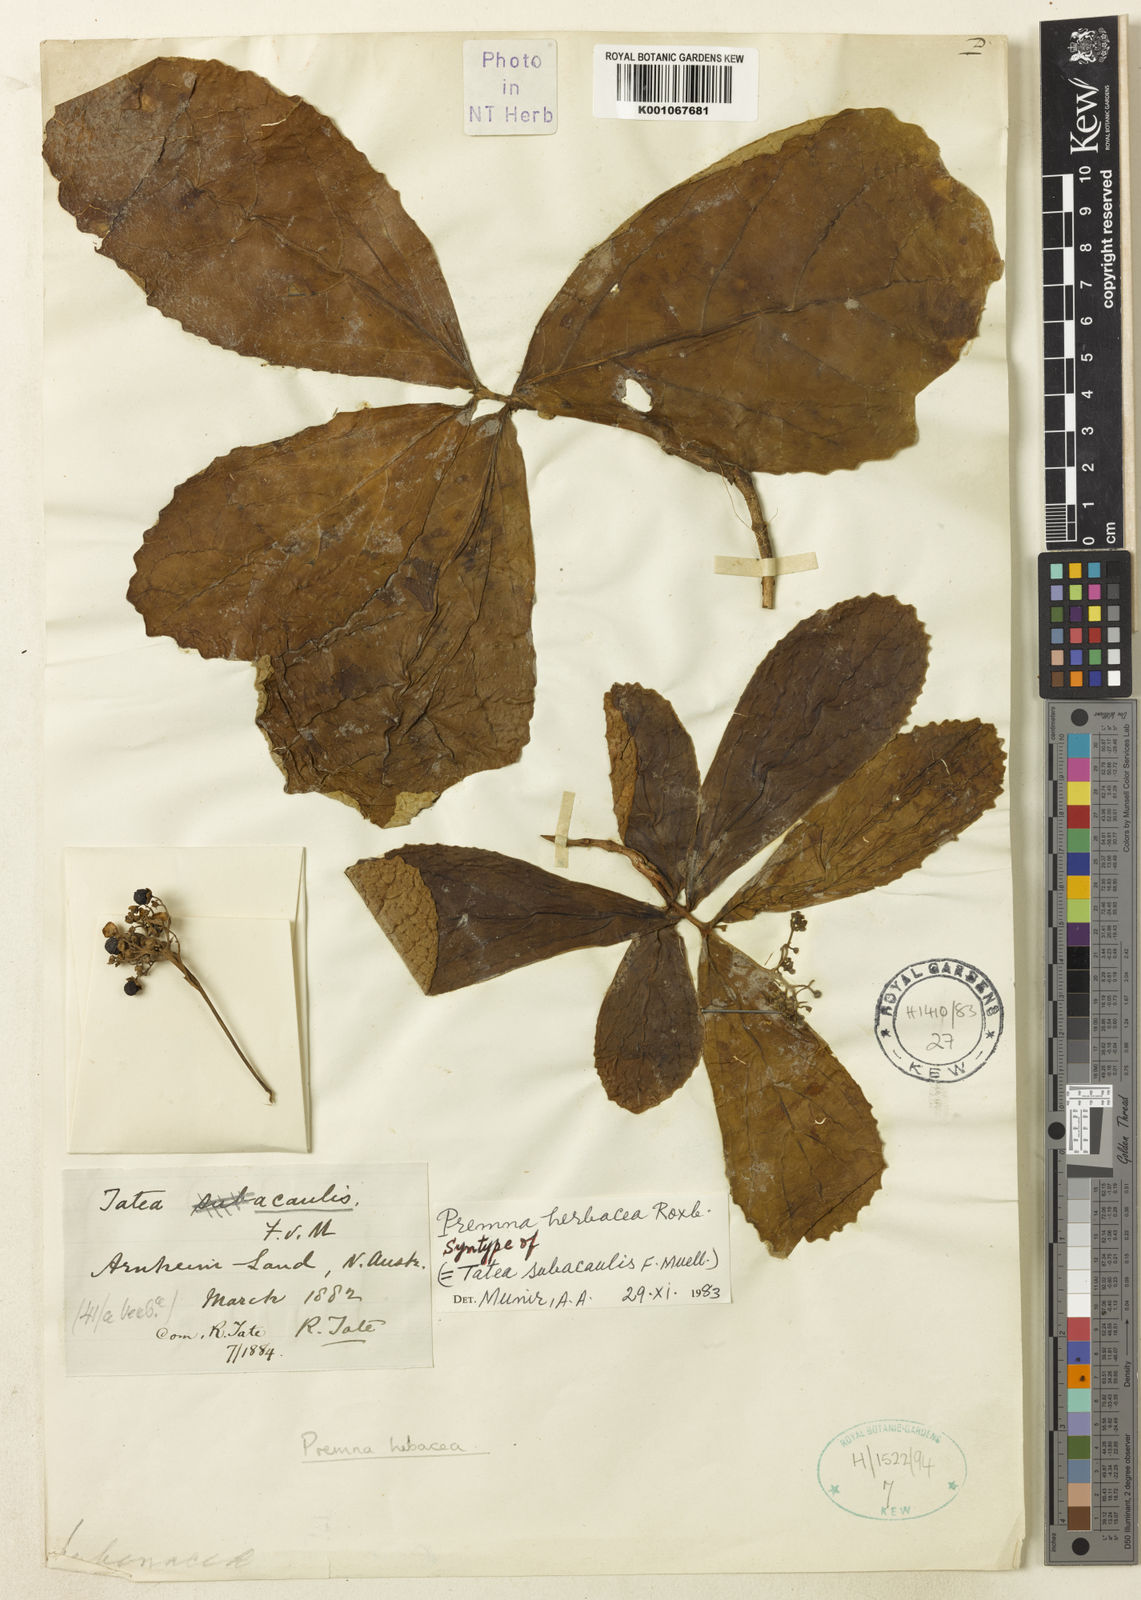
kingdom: Plantae
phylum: Tracheophyta
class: Magnoliopsida
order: Lamiales
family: Lamiaceae
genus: Premna
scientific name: Premna herbacea
